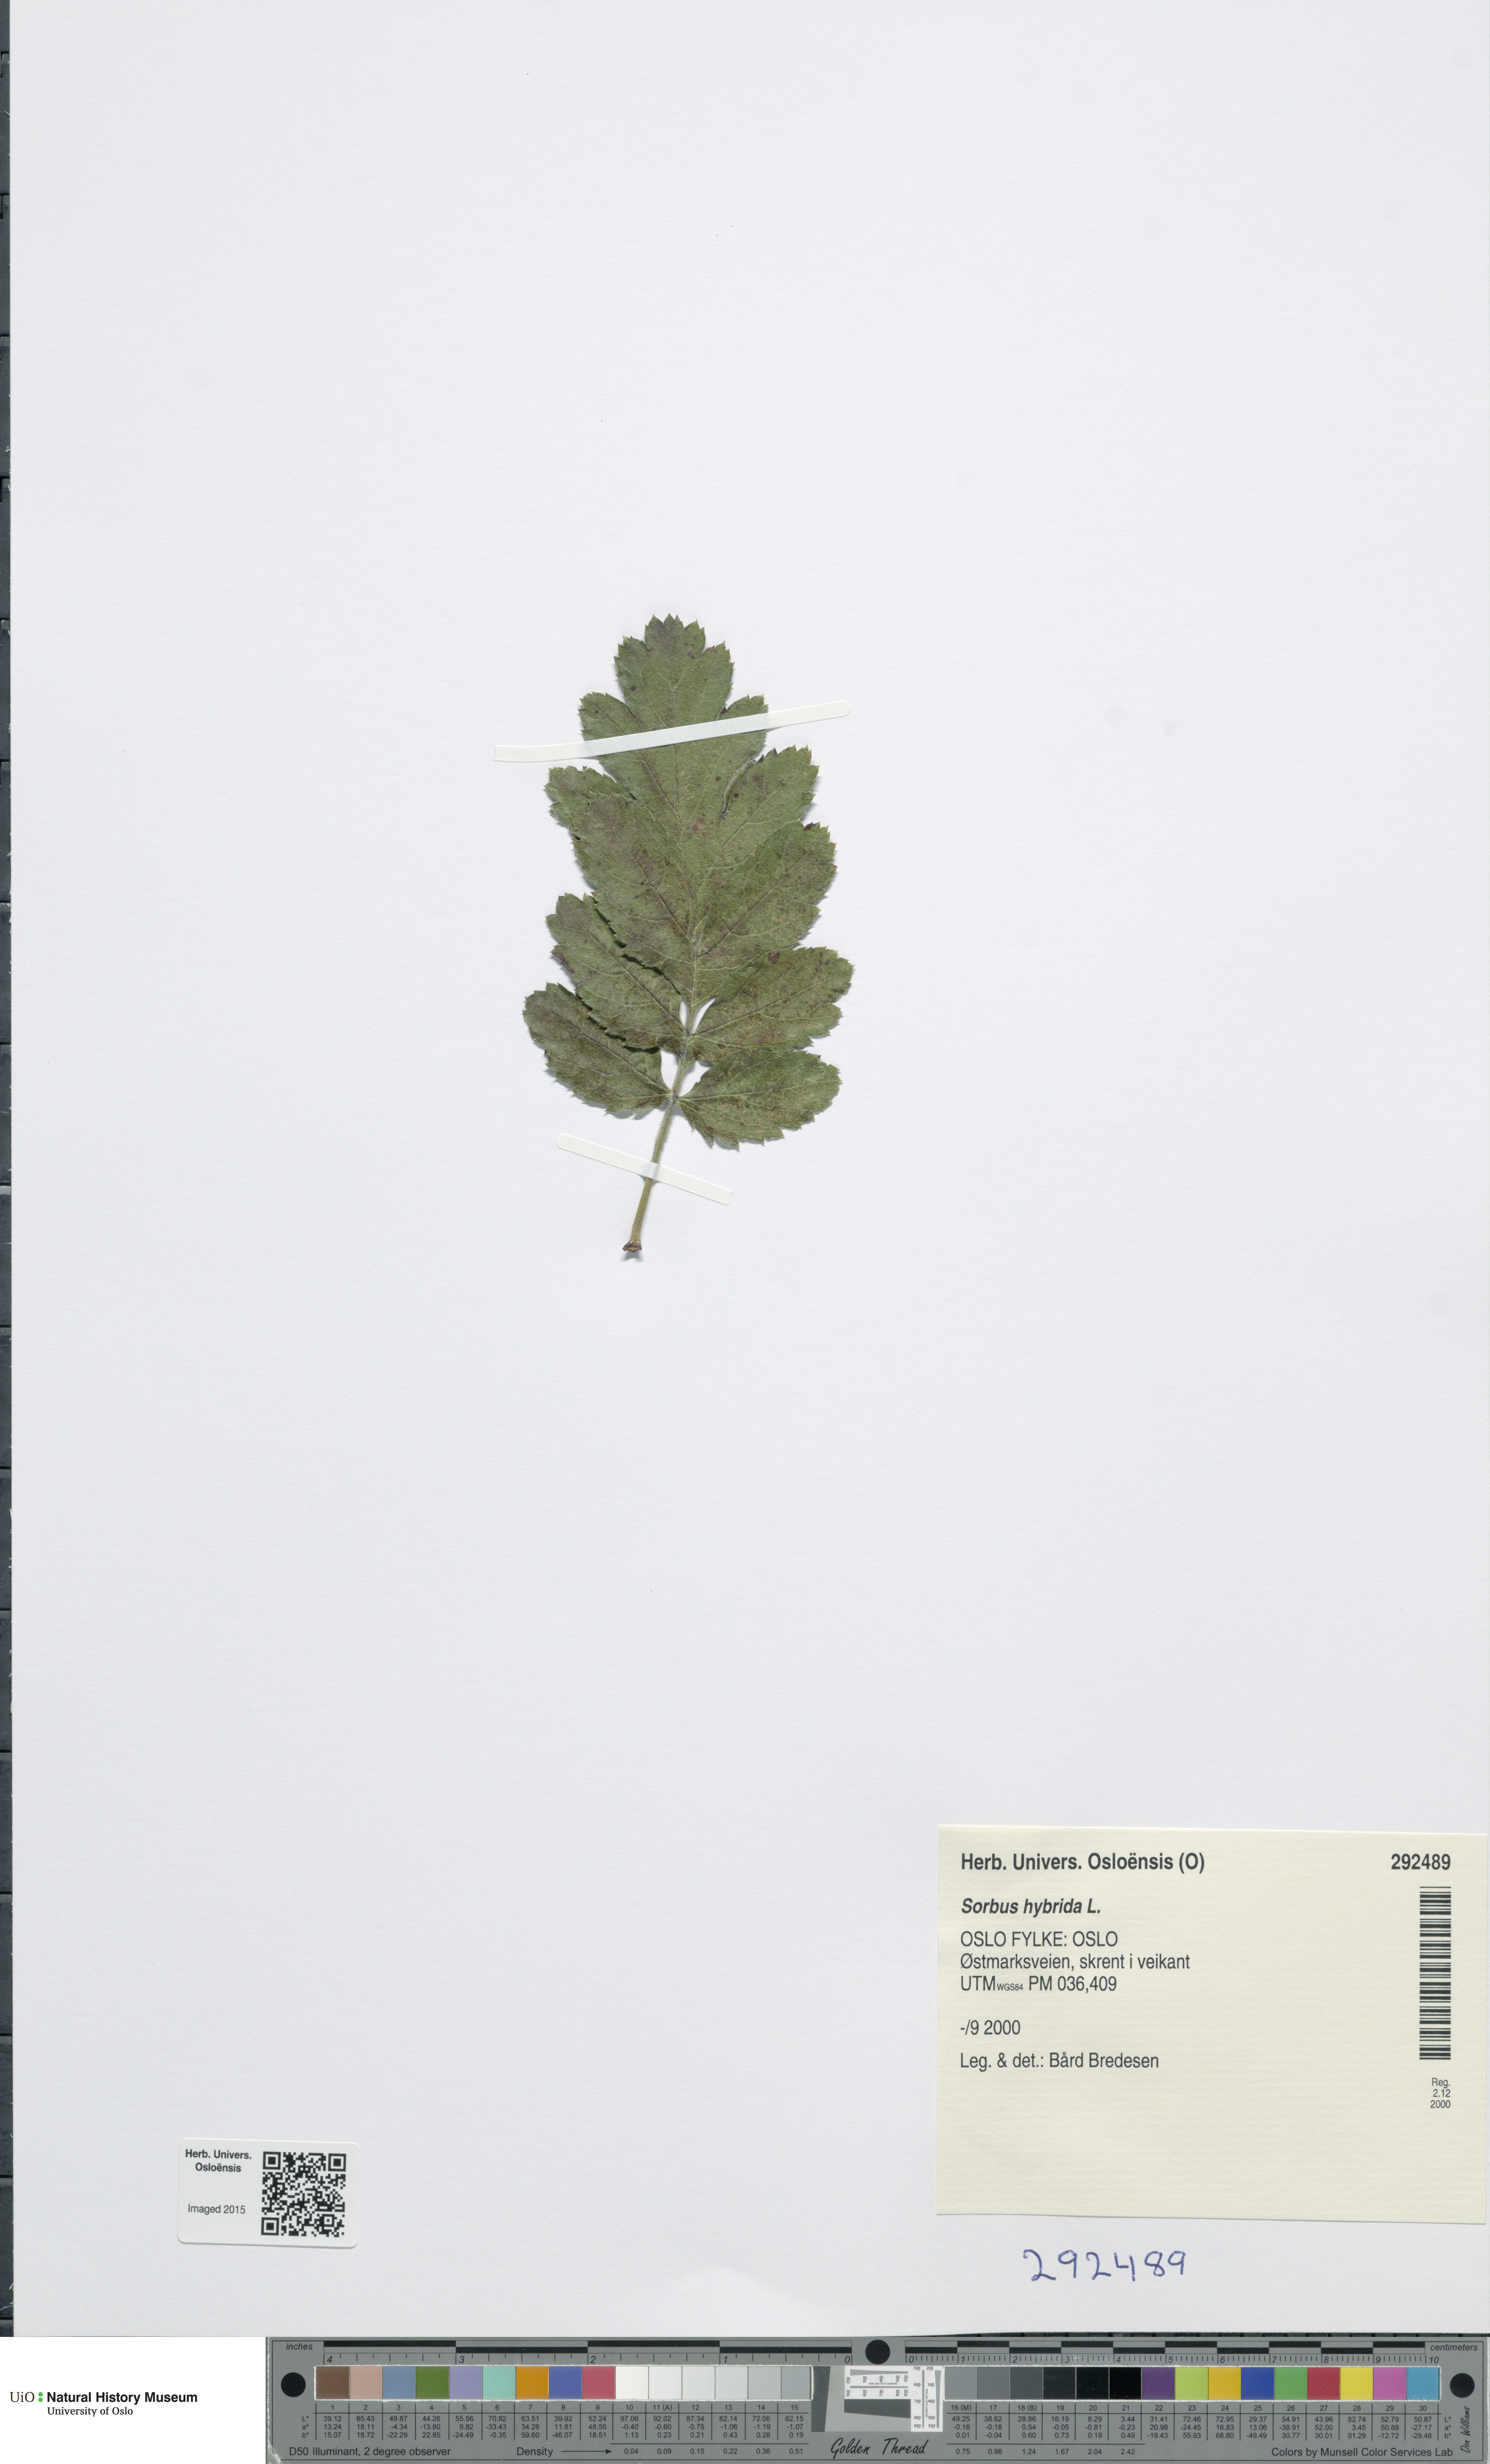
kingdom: Plantae
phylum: Tracheophyta
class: Magnoliopsida
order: Rosales
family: Rosaceae
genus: Hedlundia
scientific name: Hedlundia hybrida
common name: Swedish service-tree
